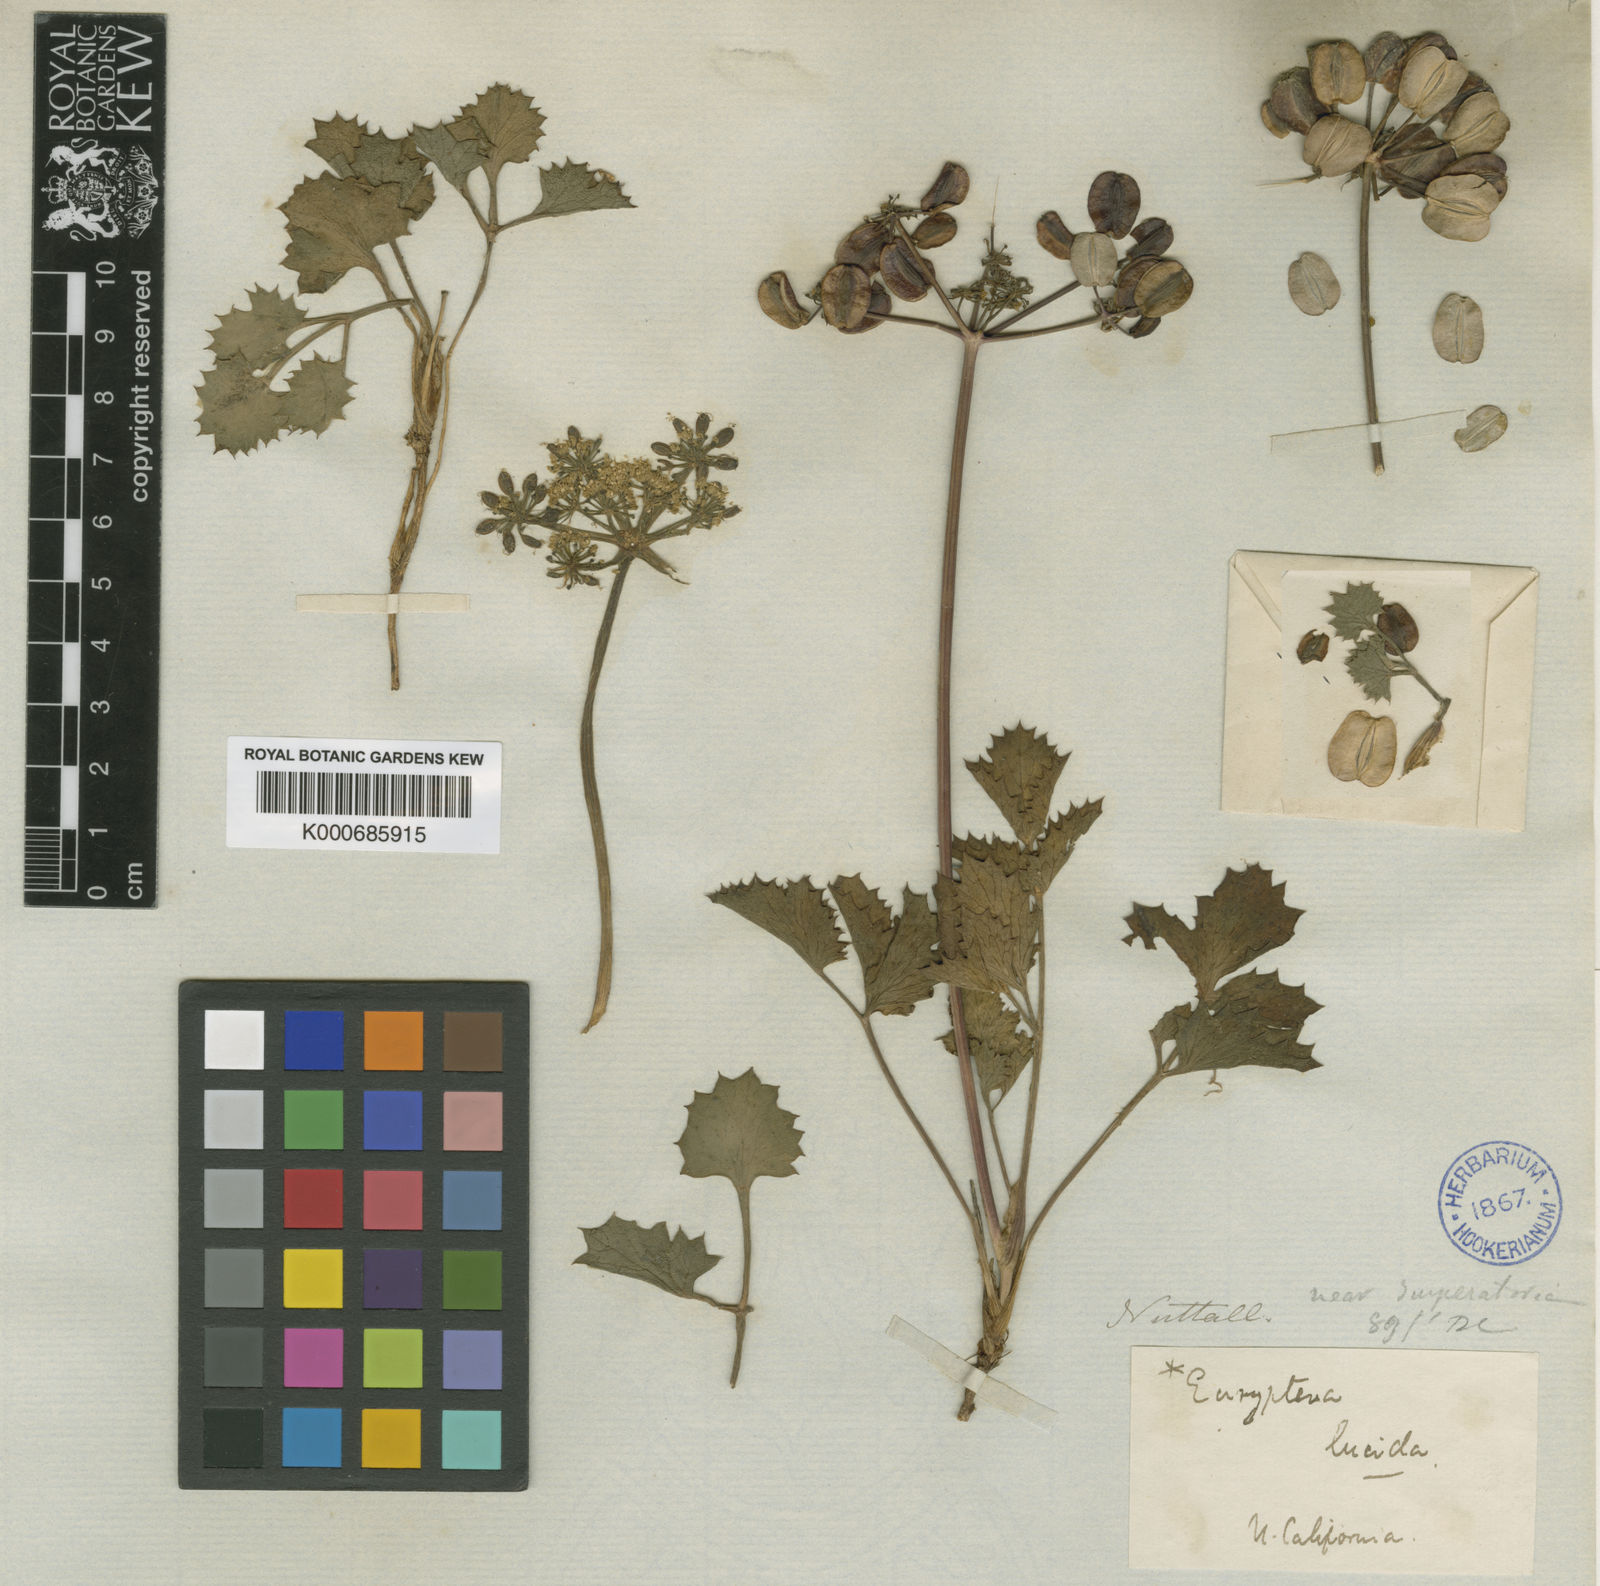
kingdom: Plantae
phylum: Tracheophyta
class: Magnoliopsida
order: Apiales
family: Apiaceae
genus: Lomatium
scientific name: Lomatium lucidum
